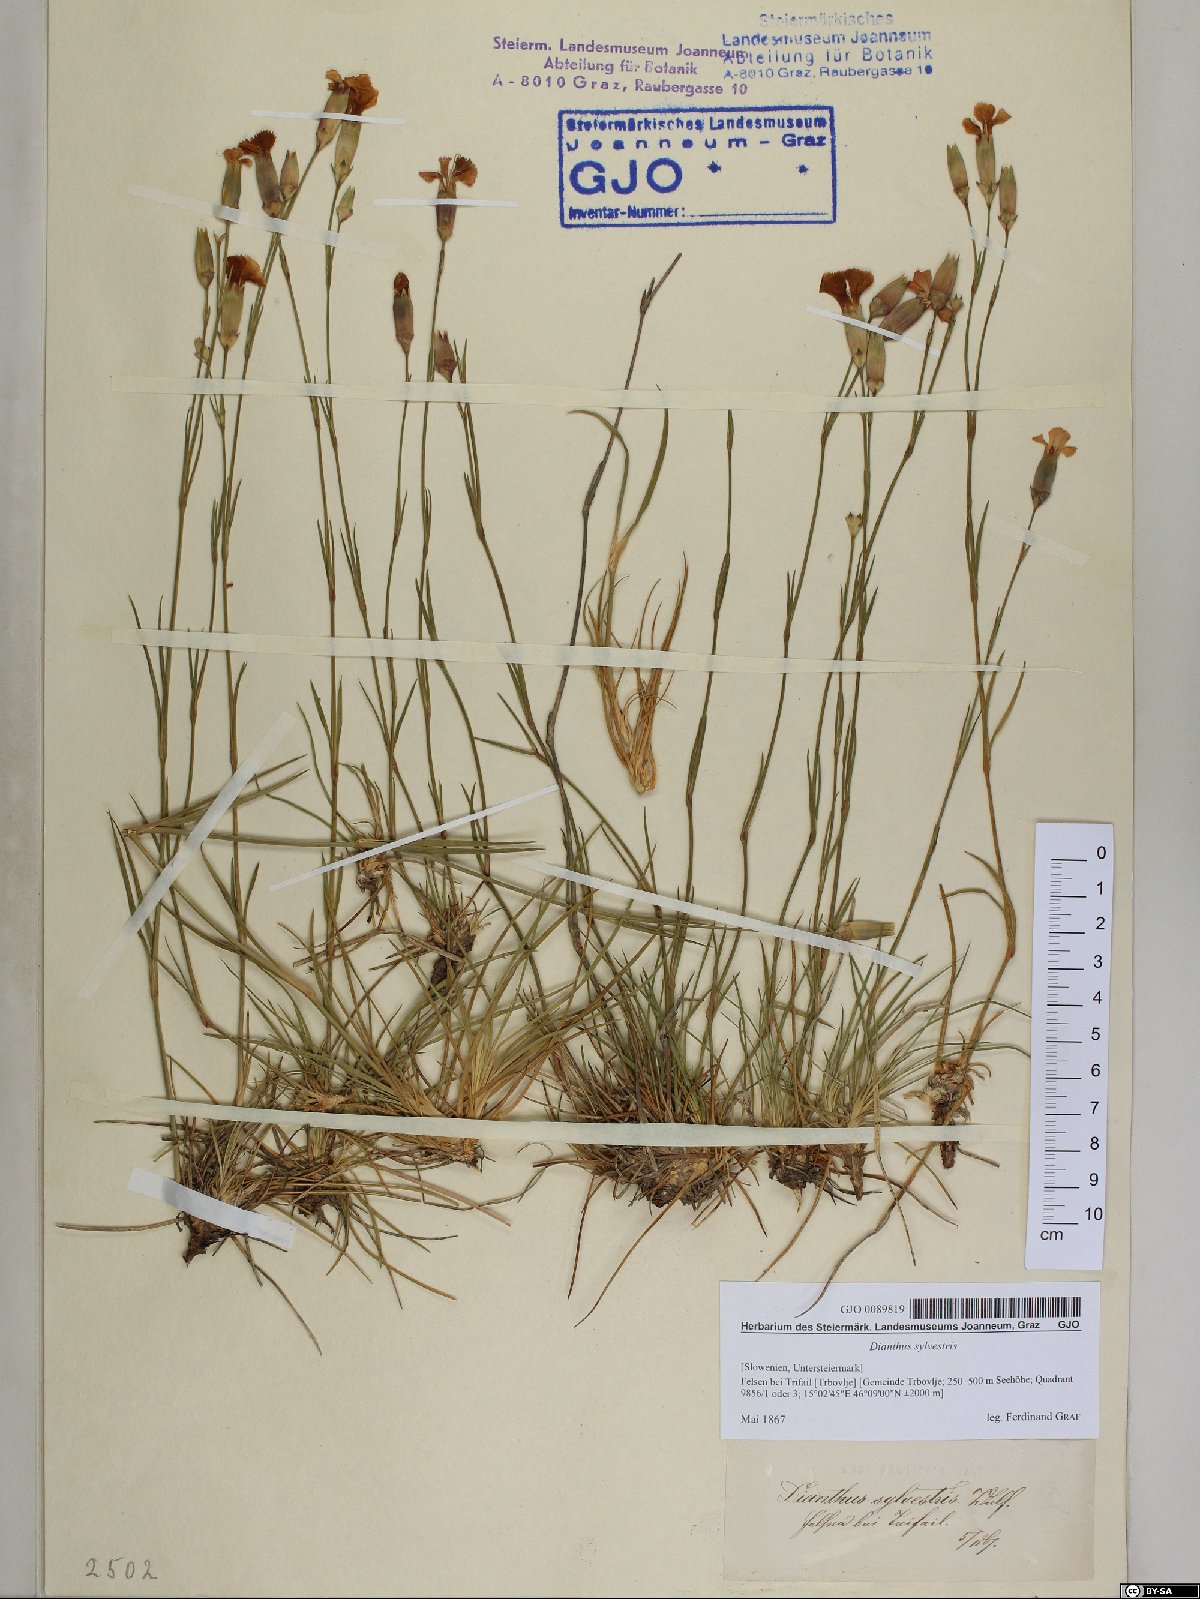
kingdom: Plantae
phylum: Tracheophyta
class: Magnoliopsida
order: Caryophyllales
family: Caryophyllaceae
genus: Dianthus
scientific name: Dianthus sylvestris
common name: Wood pink
